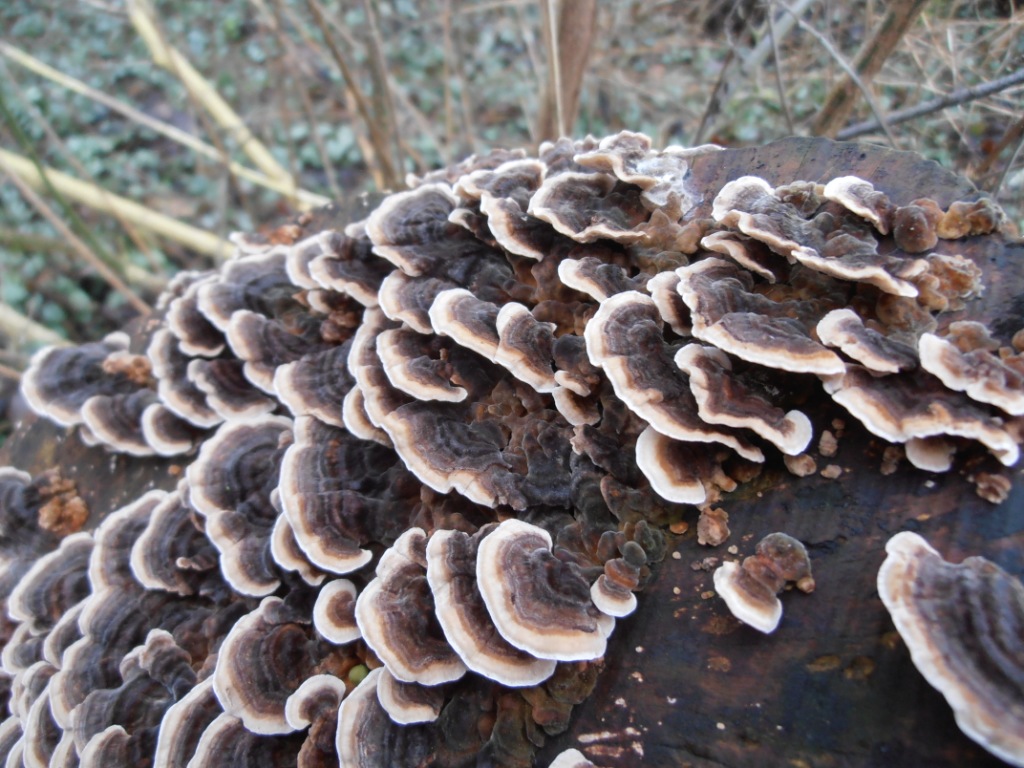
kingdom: Fungi
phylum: Basidiomycota
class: Agaricomycetes
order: Polyporales
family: Polyporaceae
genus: Trametes
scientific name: Trametes versicolor
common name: broget læderporesvamp
